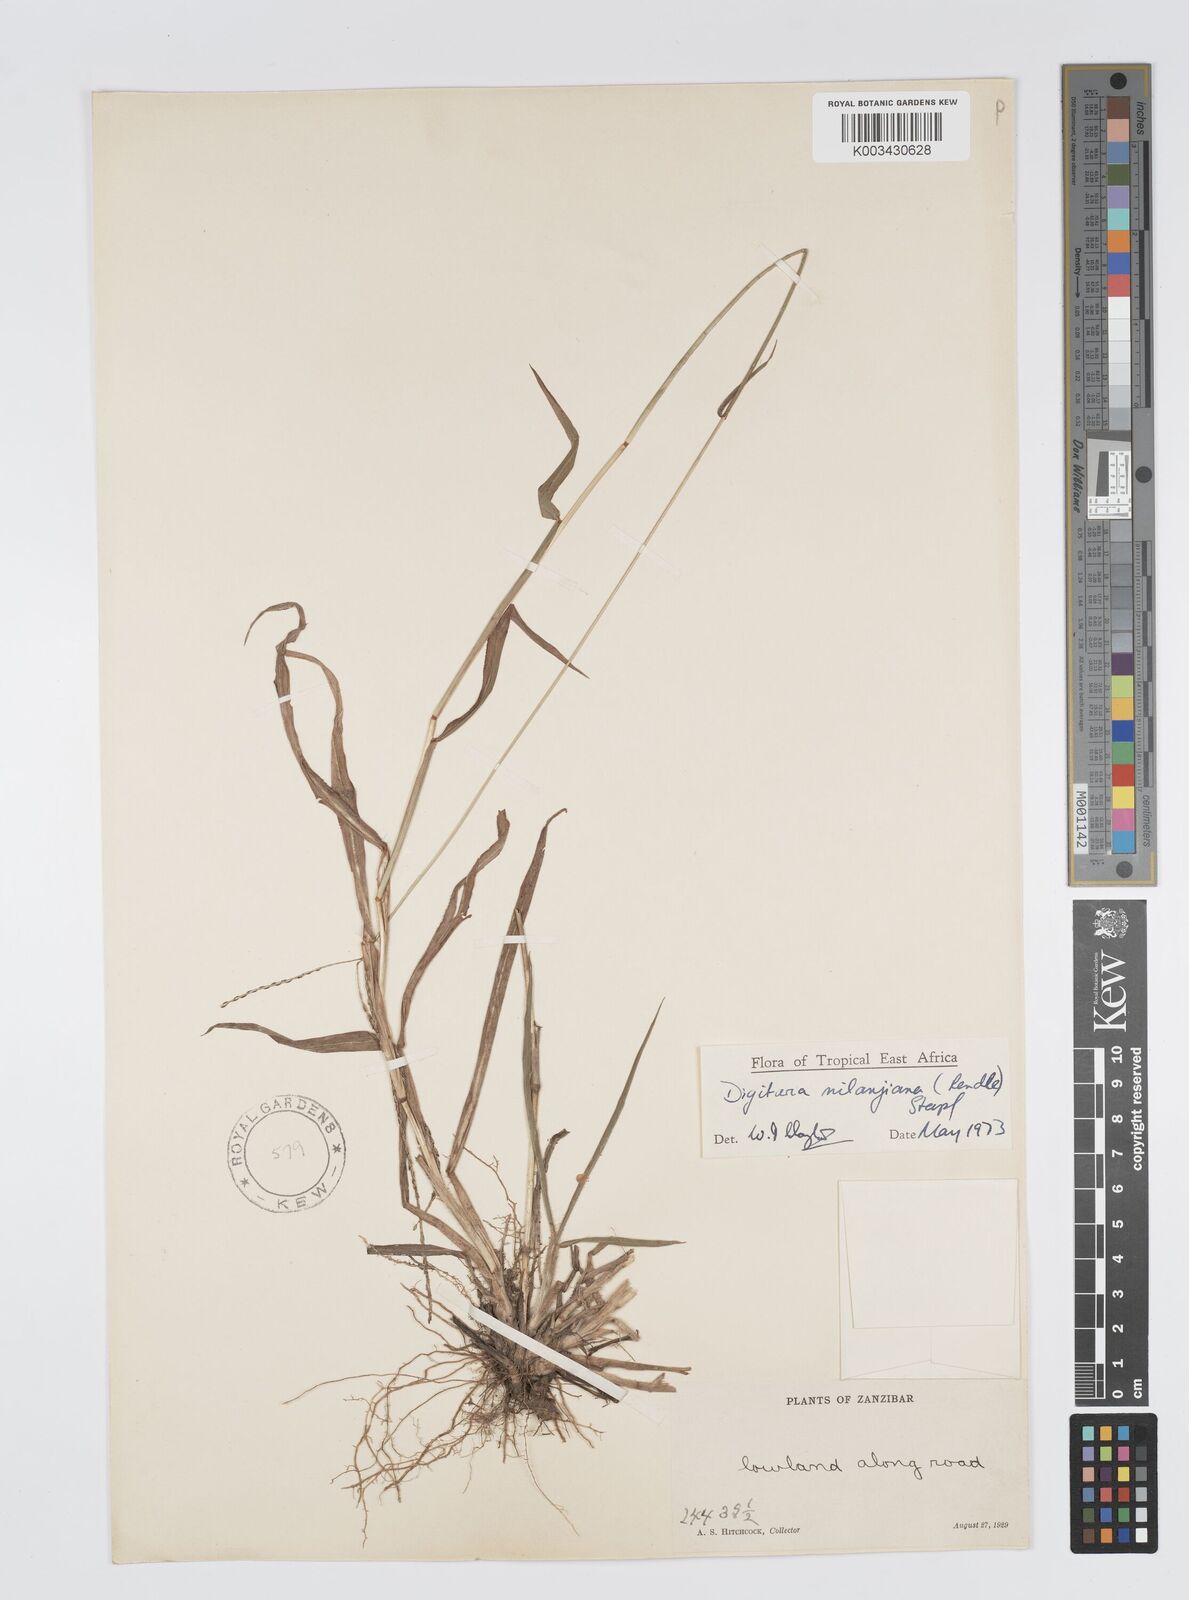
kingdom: Plantae
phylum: Tracheophyta
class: Liliopsida
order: Poales
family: Poaceae
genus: Digitaria
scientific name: Digitaria milanjiana
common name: Madagascar crabgrass
